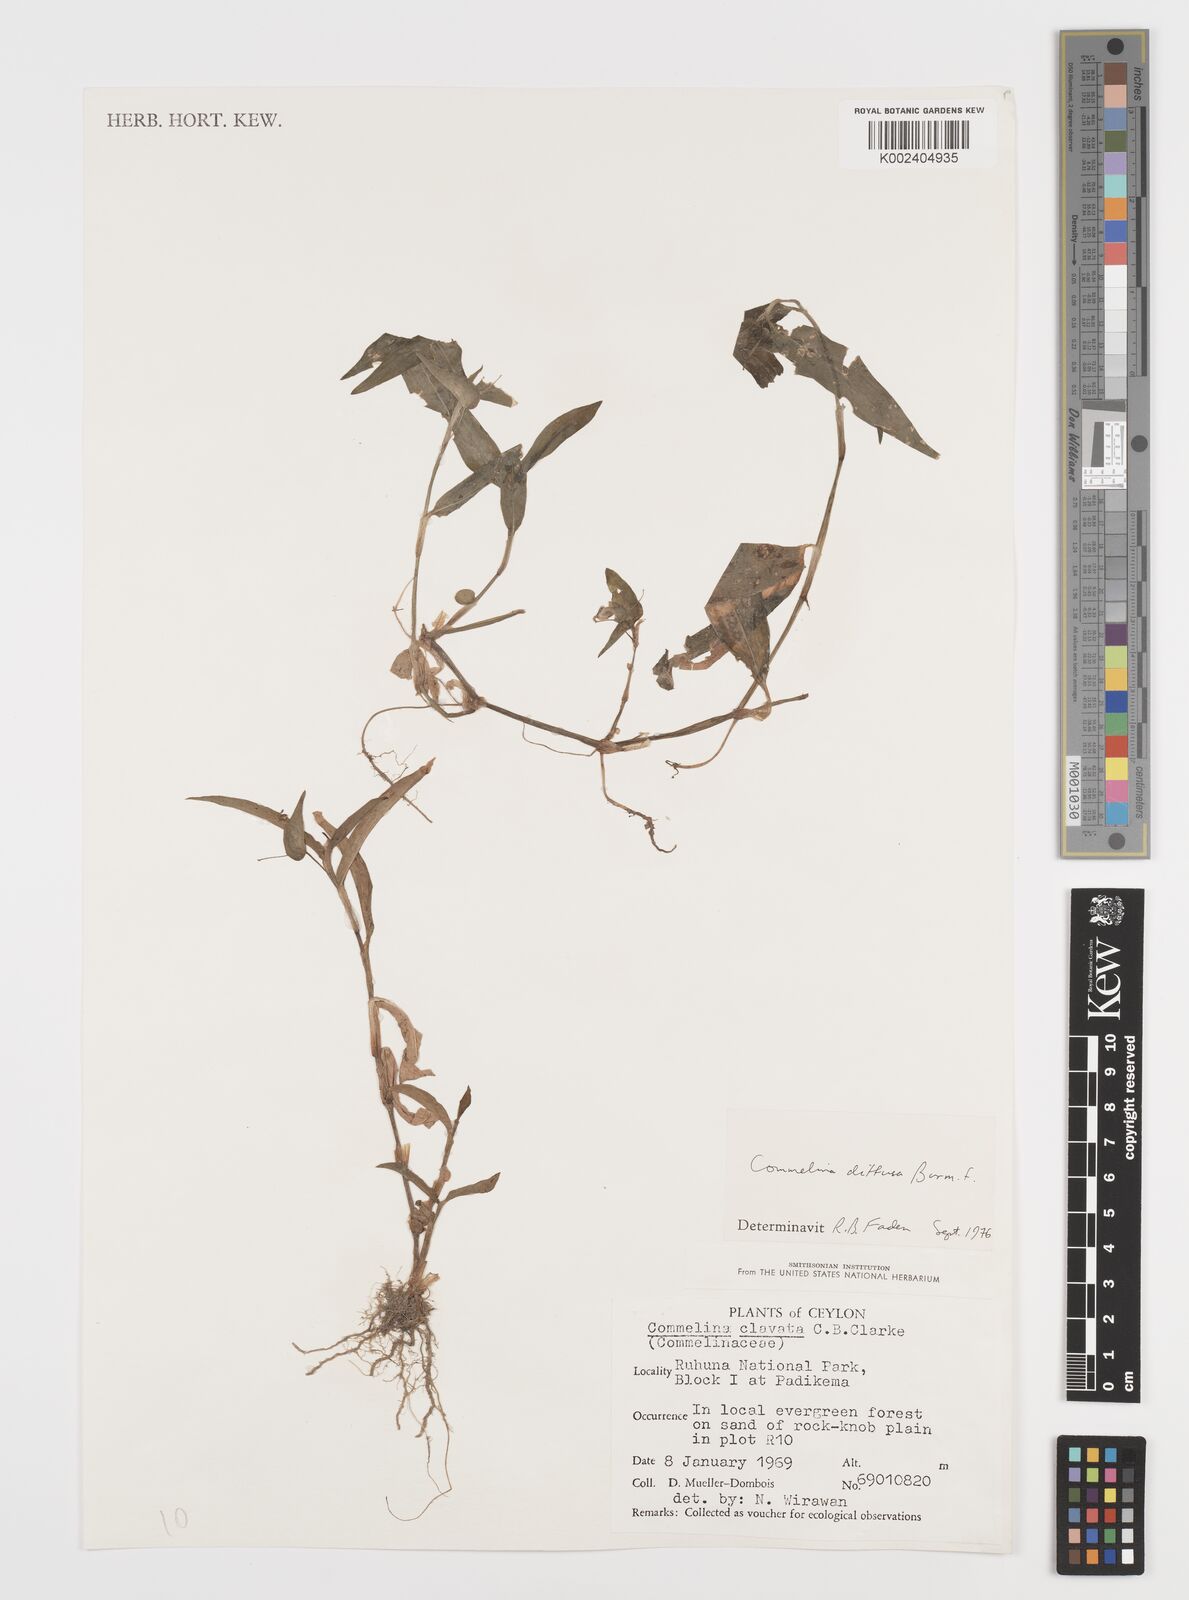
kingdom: Plantae
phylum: Tracheophyta
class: Liliopsida
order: Commelinales
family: Commelinaceae
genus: Murdannia
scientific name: Murdannia nudiflora
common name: Nakedstem dewflower
